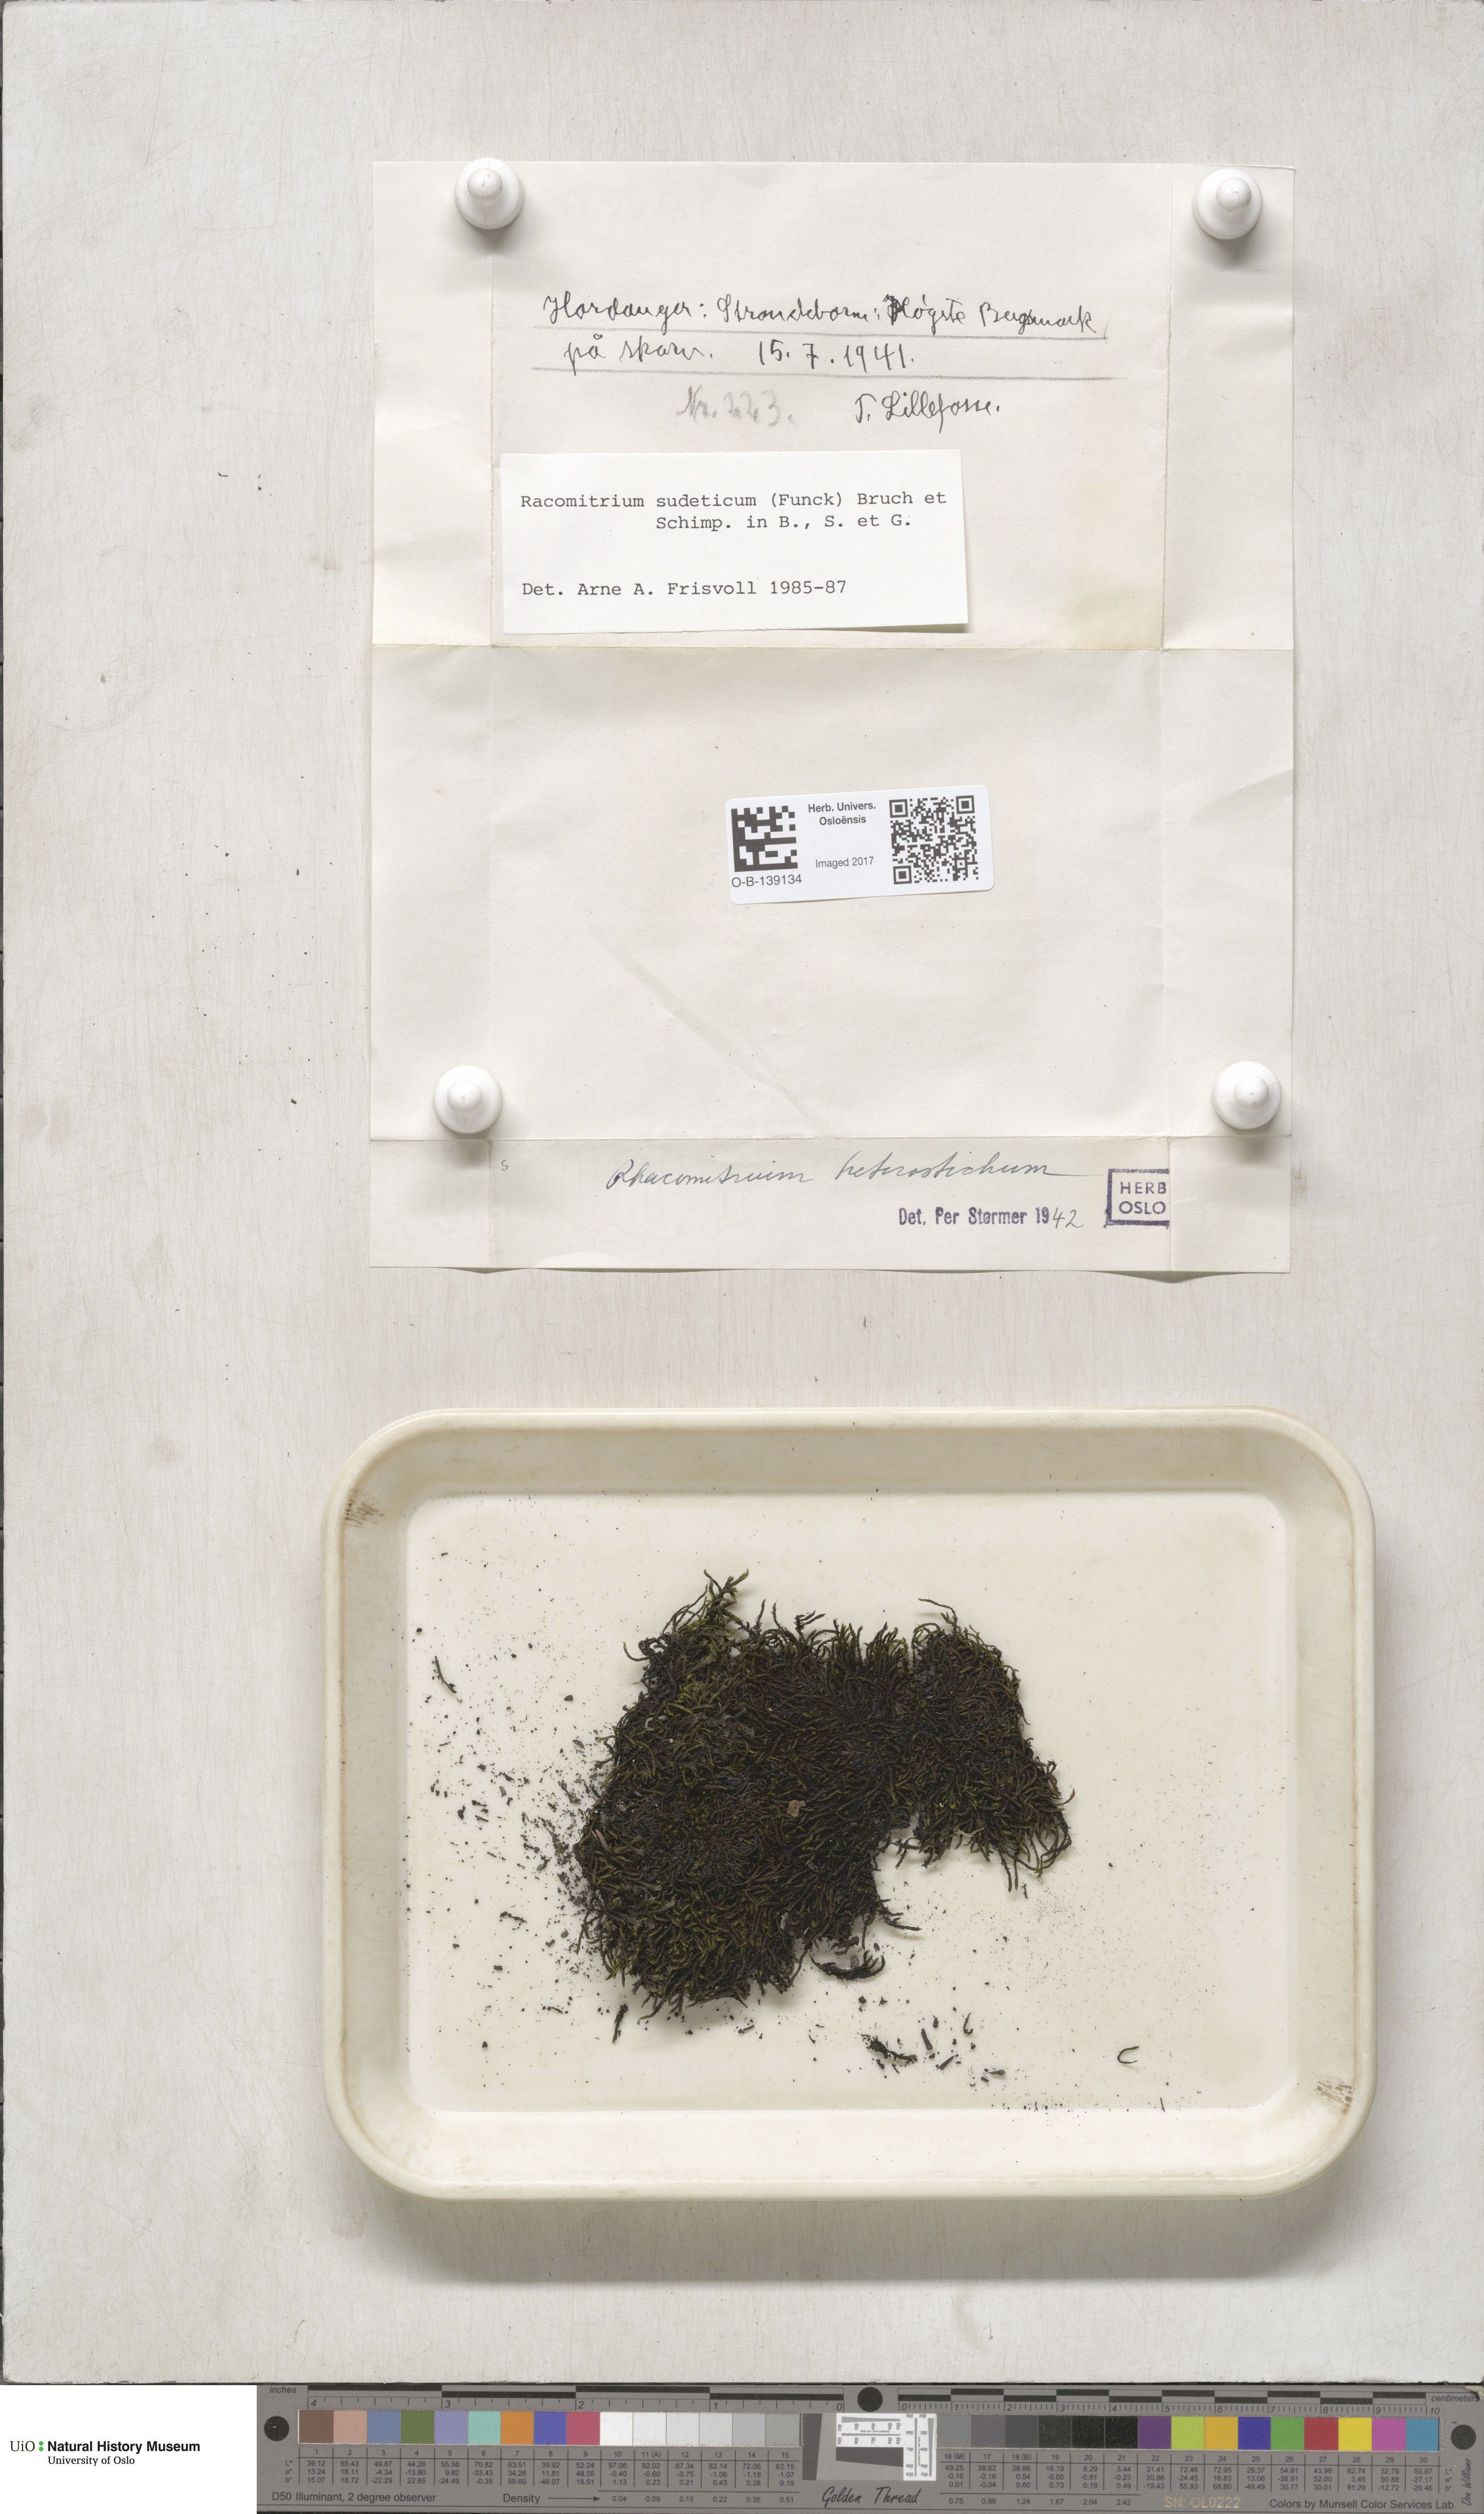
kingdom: Plantae
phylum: Bryophyta
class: Bryopsida
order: Grimmiales
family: Grimmiaceae
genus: Bucklandiella
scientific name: Bucklandiella sudetica
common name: Slender fringe-moss
